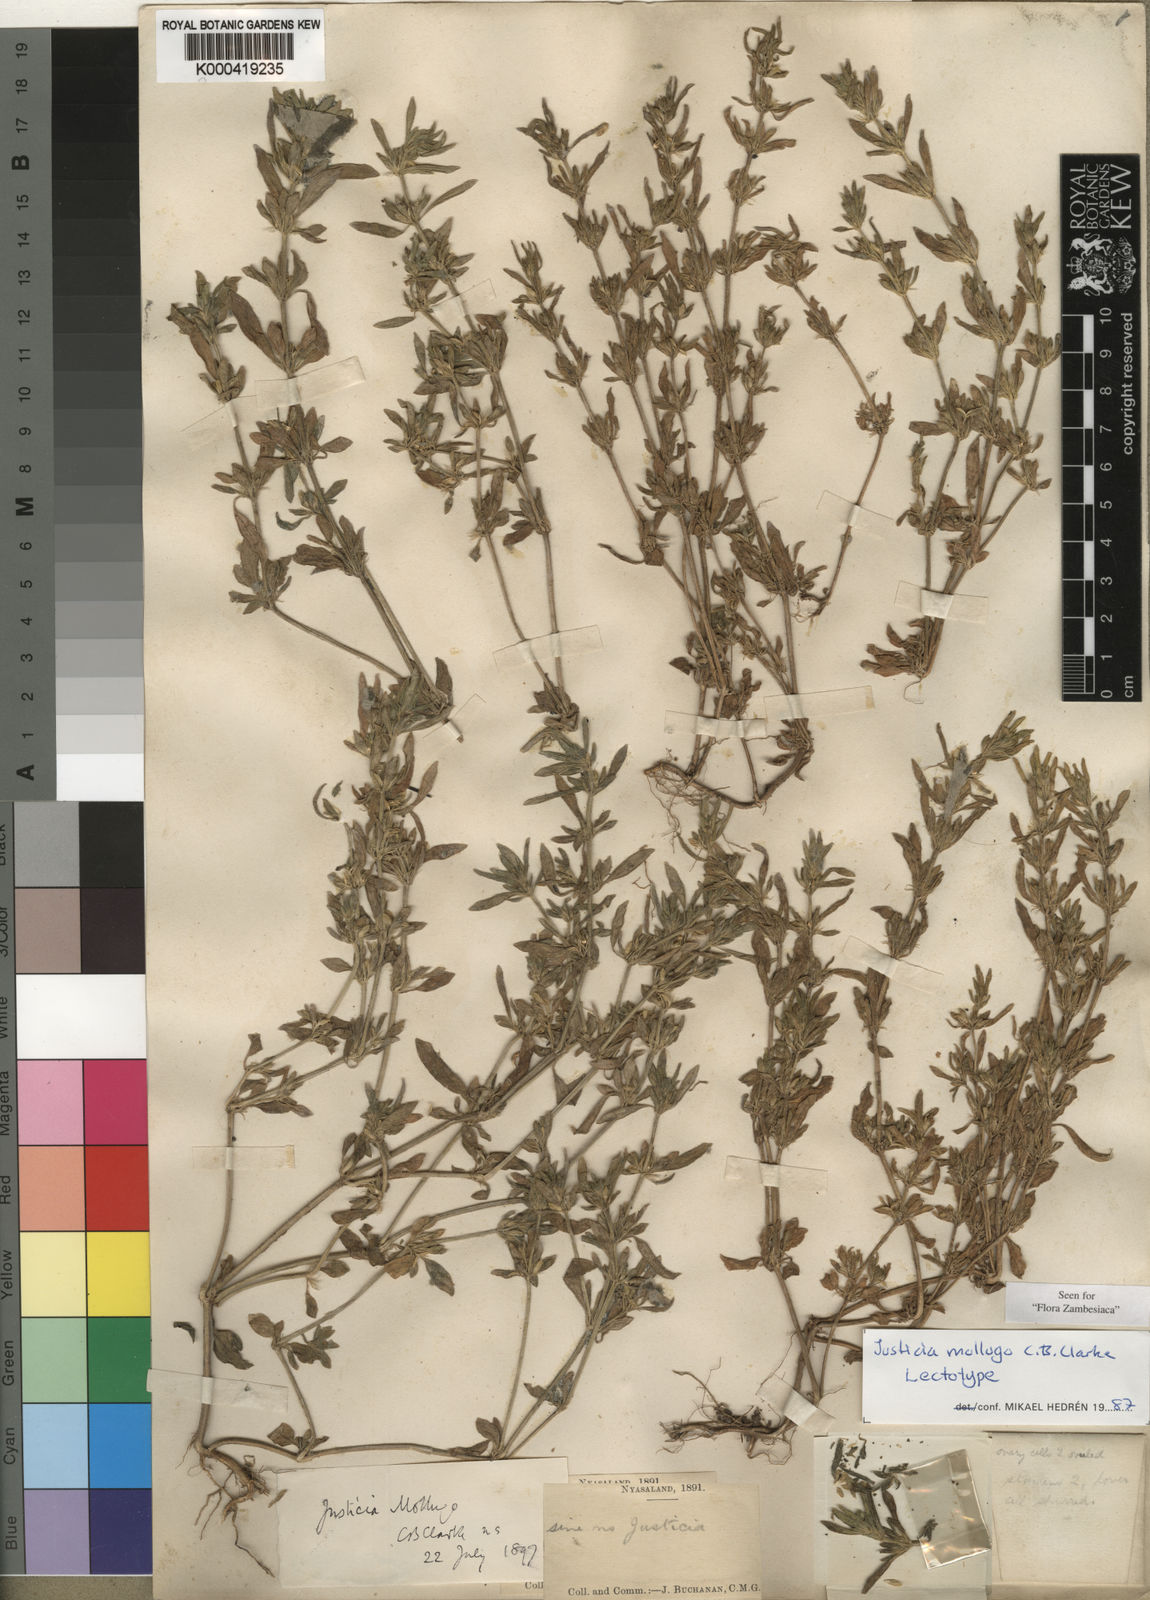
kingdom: Plantae
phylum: Tracheophyta
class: Magnoliopsida
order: Lamiales
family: Acanthaceae
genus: Justicia
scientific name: Justicia mollugo
